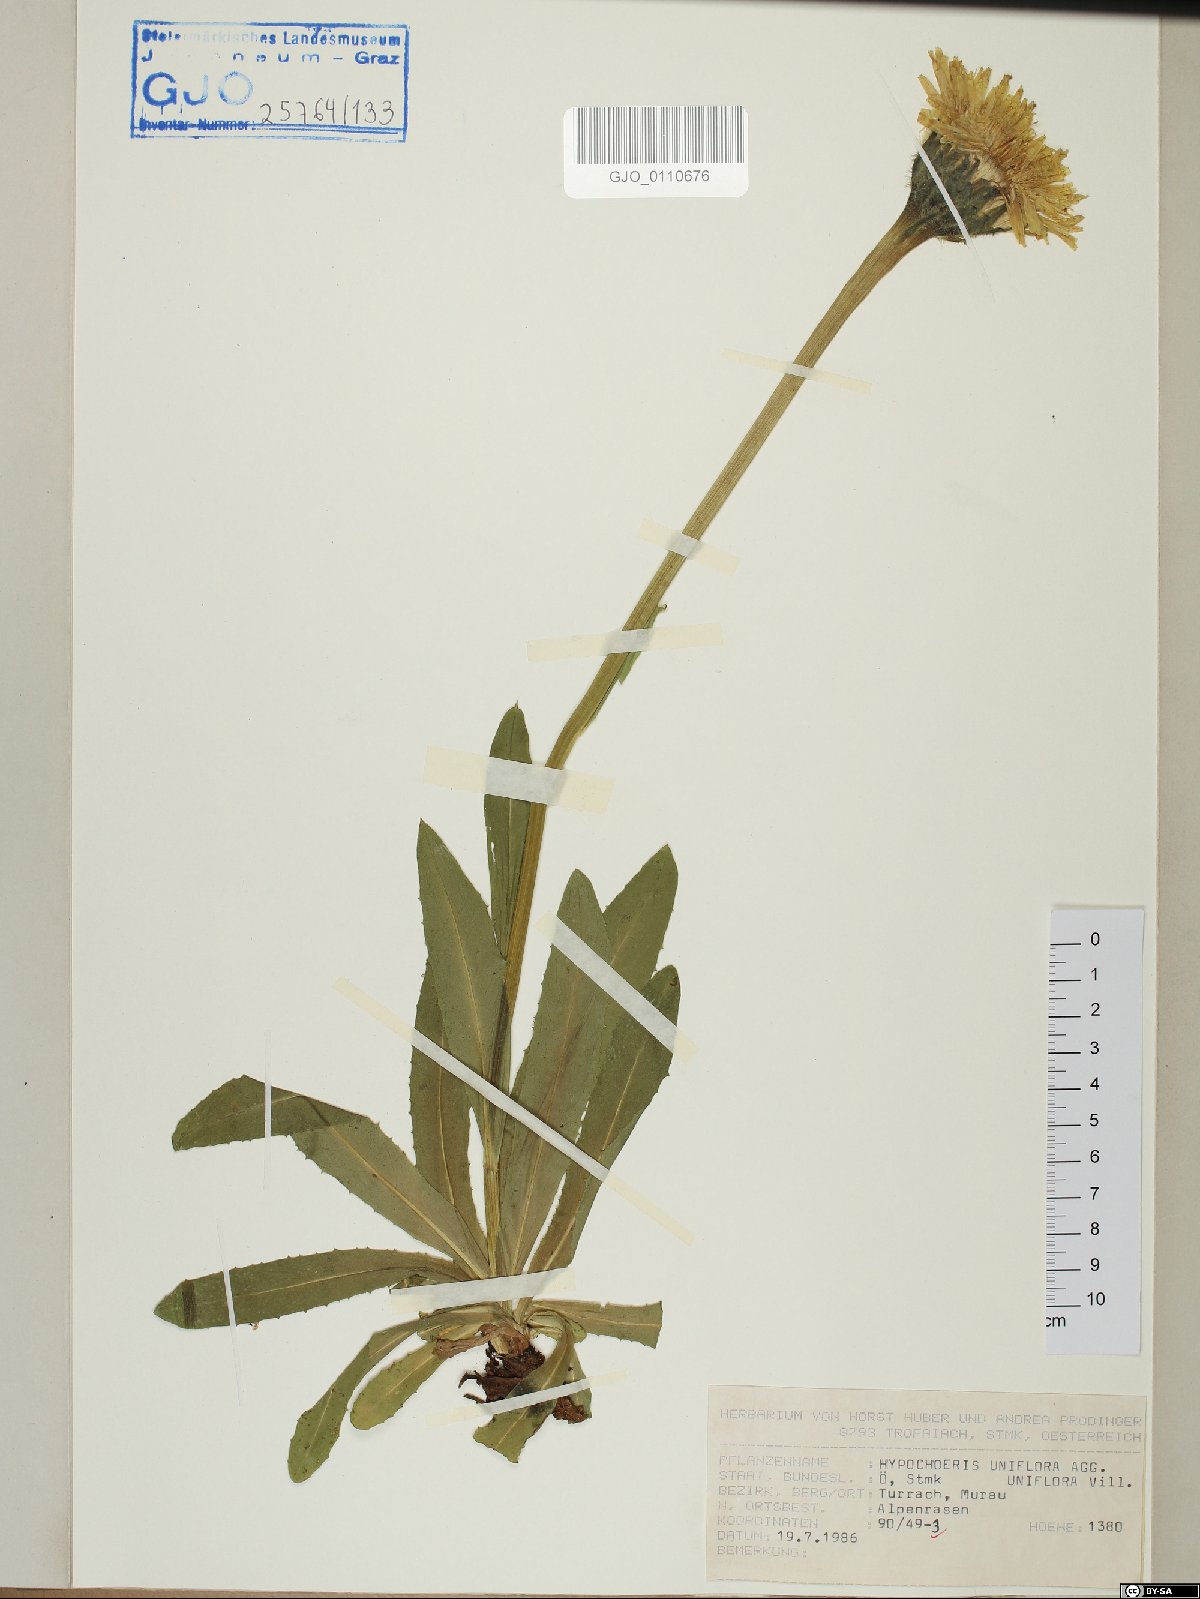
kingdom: Plantae
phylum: Tracheophyta
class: Magnoliopsida
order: Asterales
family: Asteraceae
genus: Trommsdorffia
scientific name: Trommsdorffia uniflora
